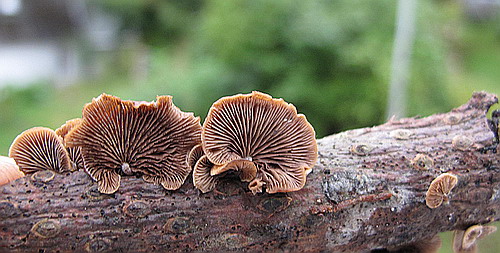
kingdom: Fungi
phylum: Basidiomycota
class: Agaricomycetes
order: Agaricales
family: Strophariaceae
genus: Deconica
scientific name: Deconica horizontalis
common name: ved-stråhat
